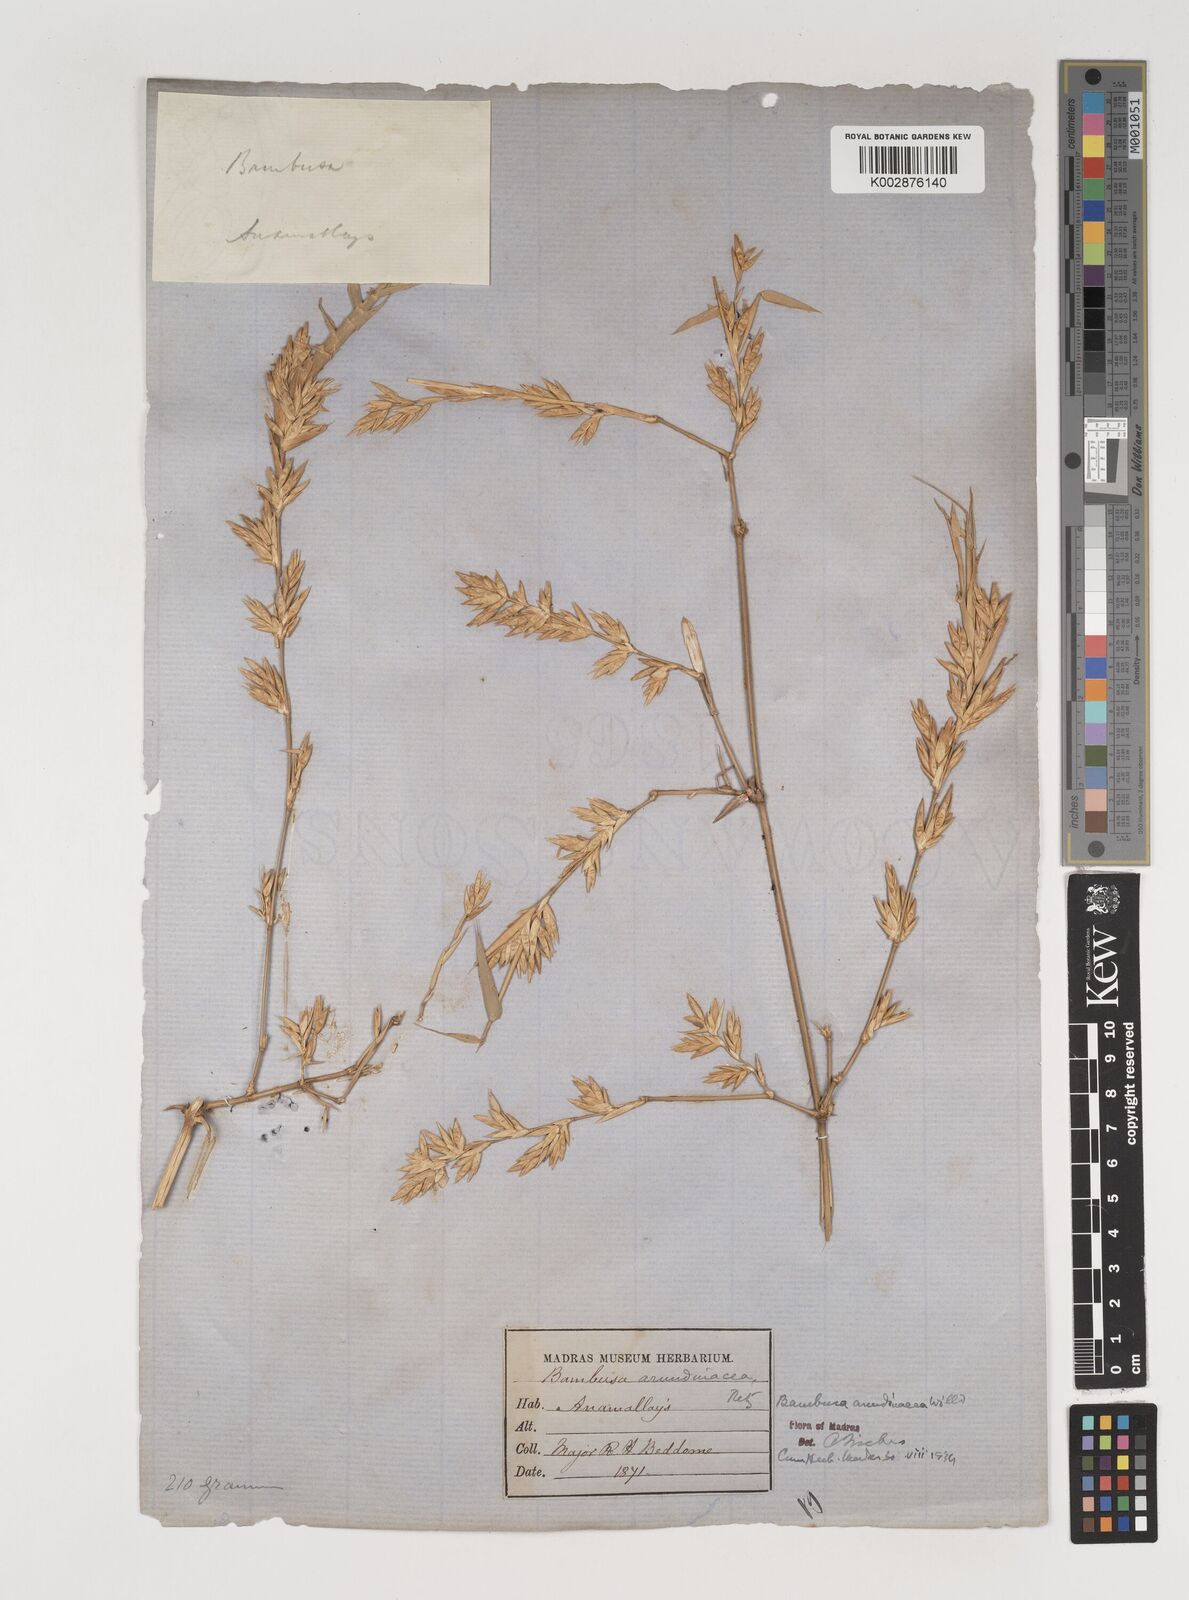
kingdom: Plantae
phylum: Tracheophyta
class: Liliopsida
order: Poales
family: Poaceae
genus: Bambusa
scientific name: Bambusa bambos
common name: Indian thorny bamboo
